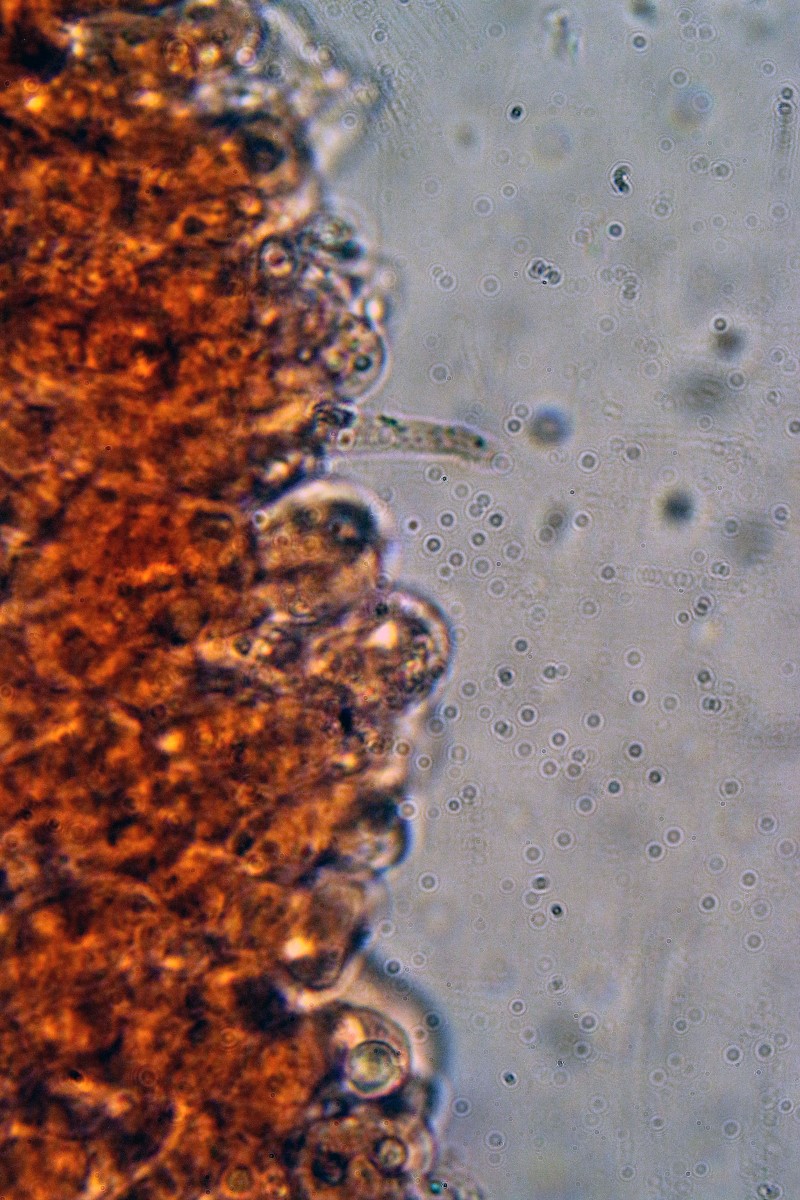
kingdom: Fungi
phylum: Basidiomycota
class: Agaricomycetes
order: Agaricales
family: Tricholomataceae
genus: Melanoleuca
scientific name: Melanoleuca
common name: munkehat
